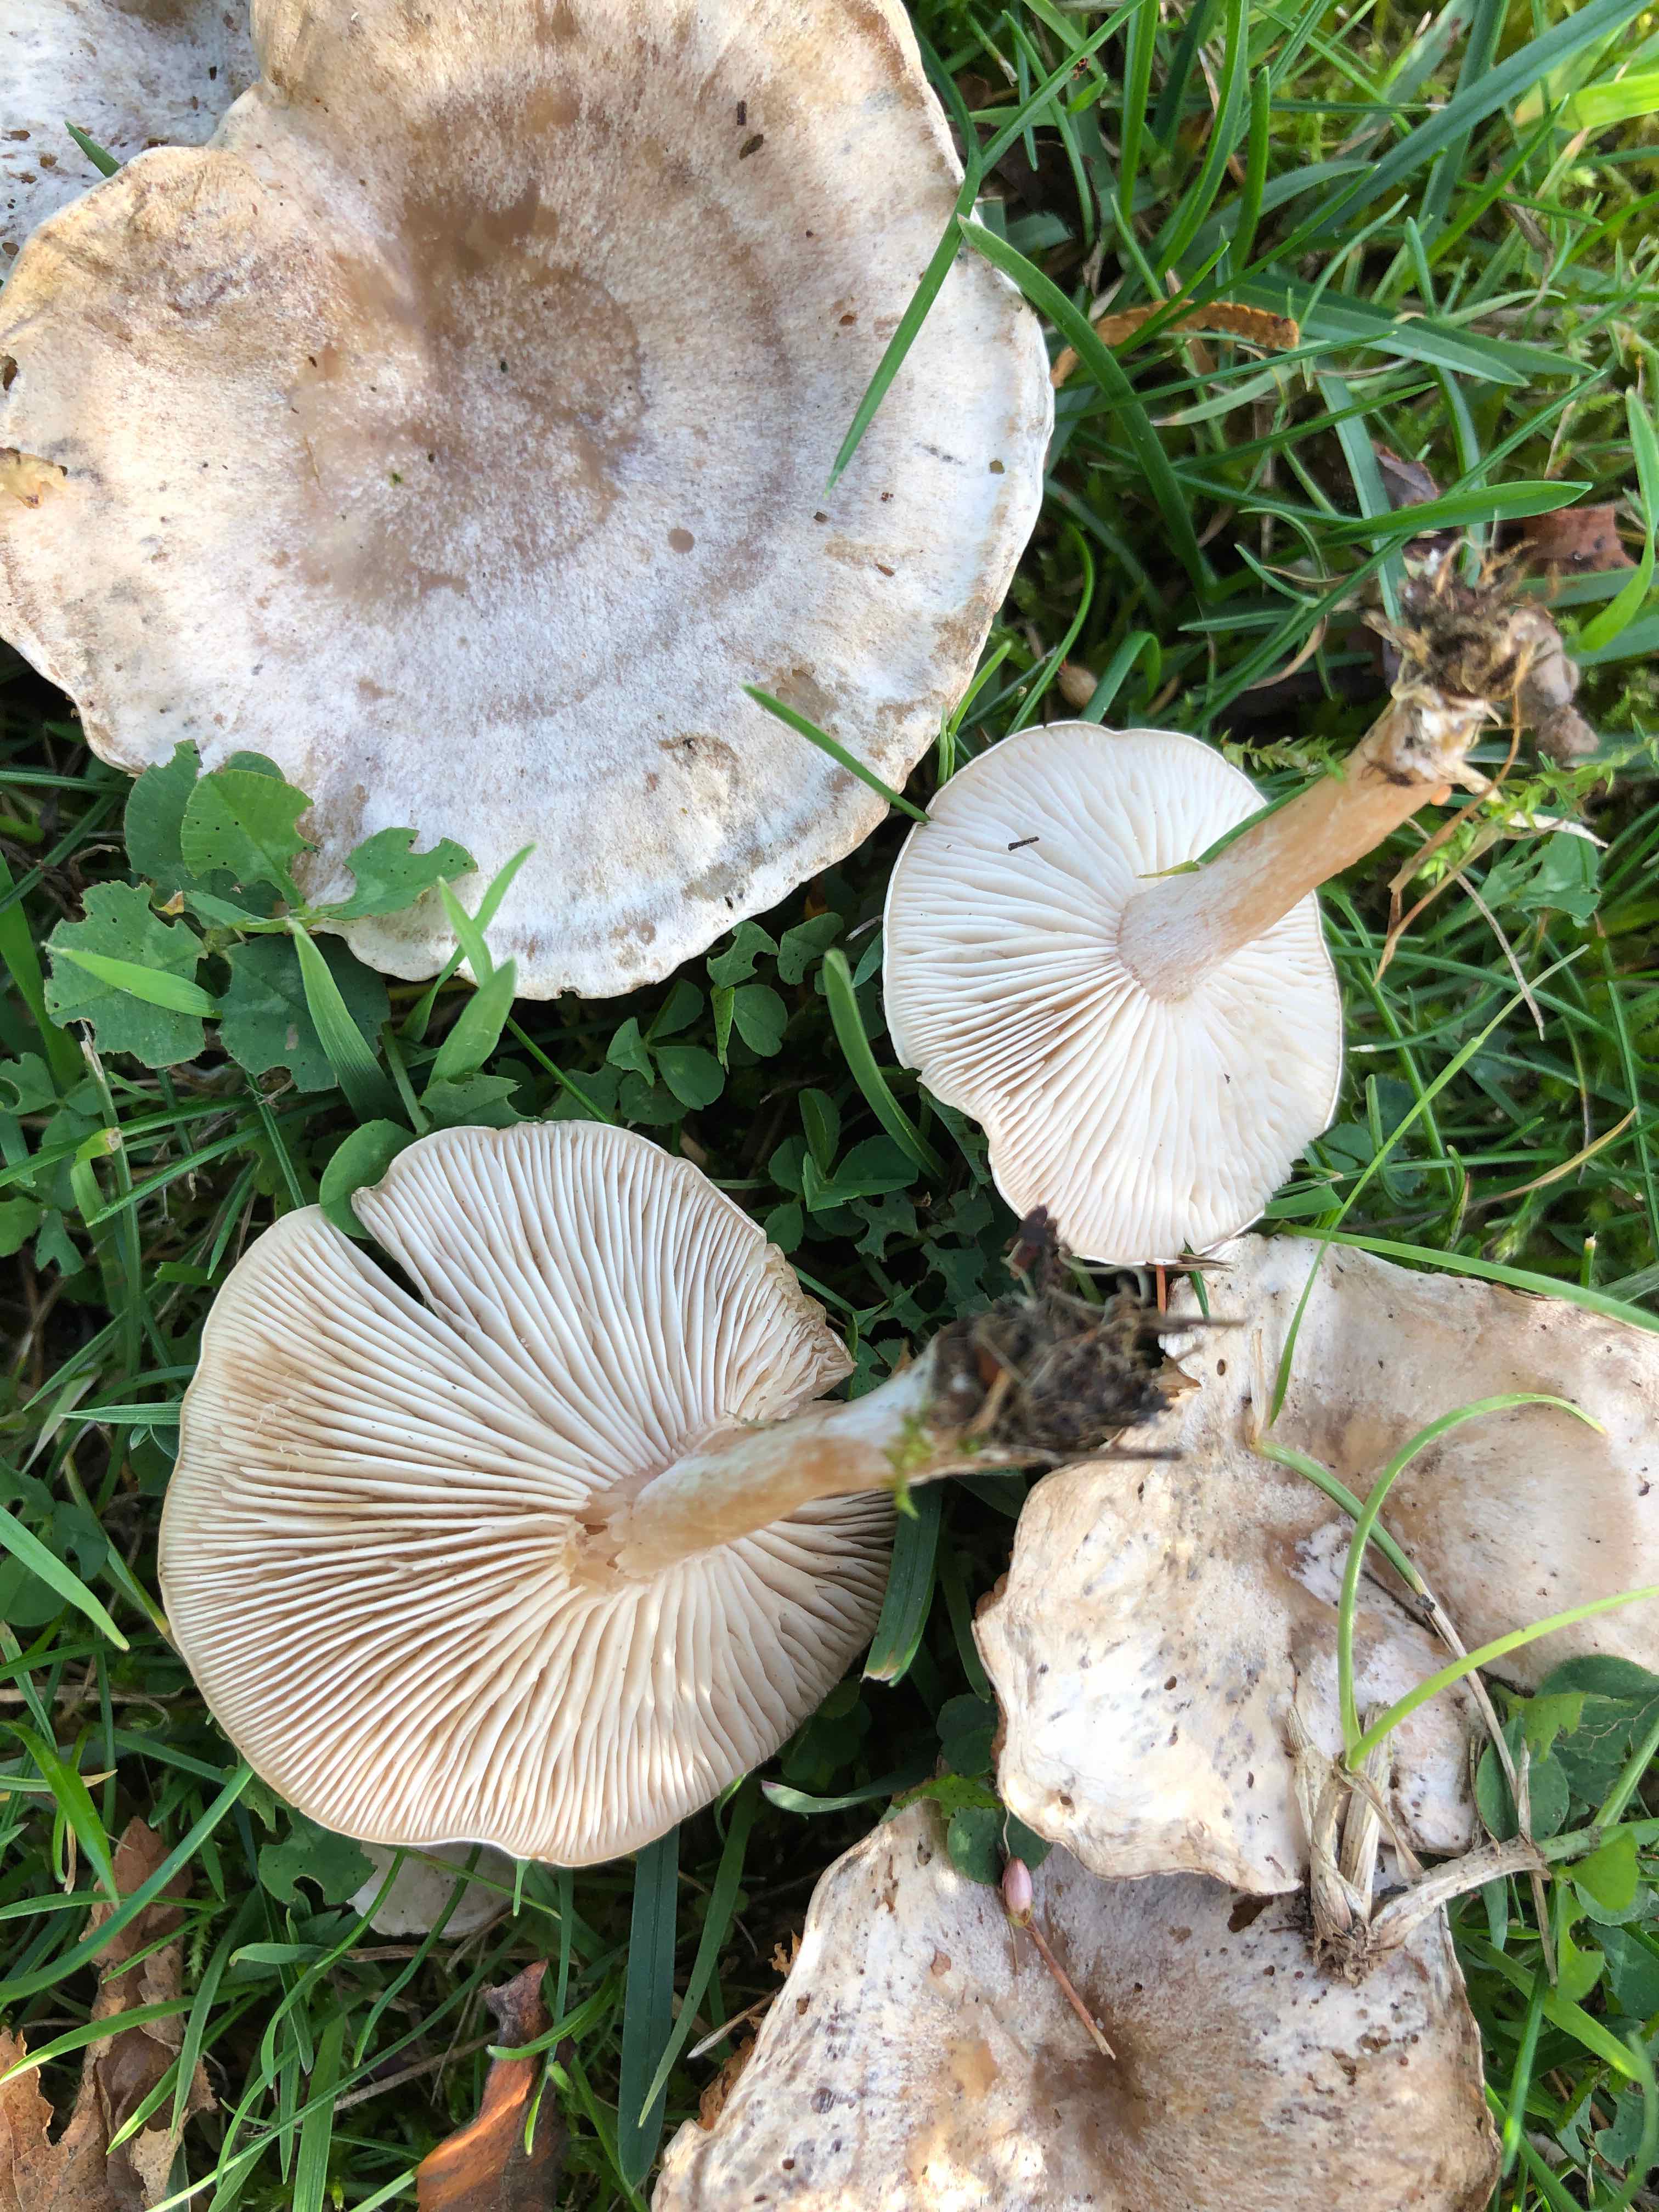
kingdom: Fungi
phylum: Basidiomycota
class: Agaricomycetes
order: Agaricales
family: Tricholomataceae
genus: Clitocybe
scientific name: Clitocybe rivulosa
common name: eng-tragthat
